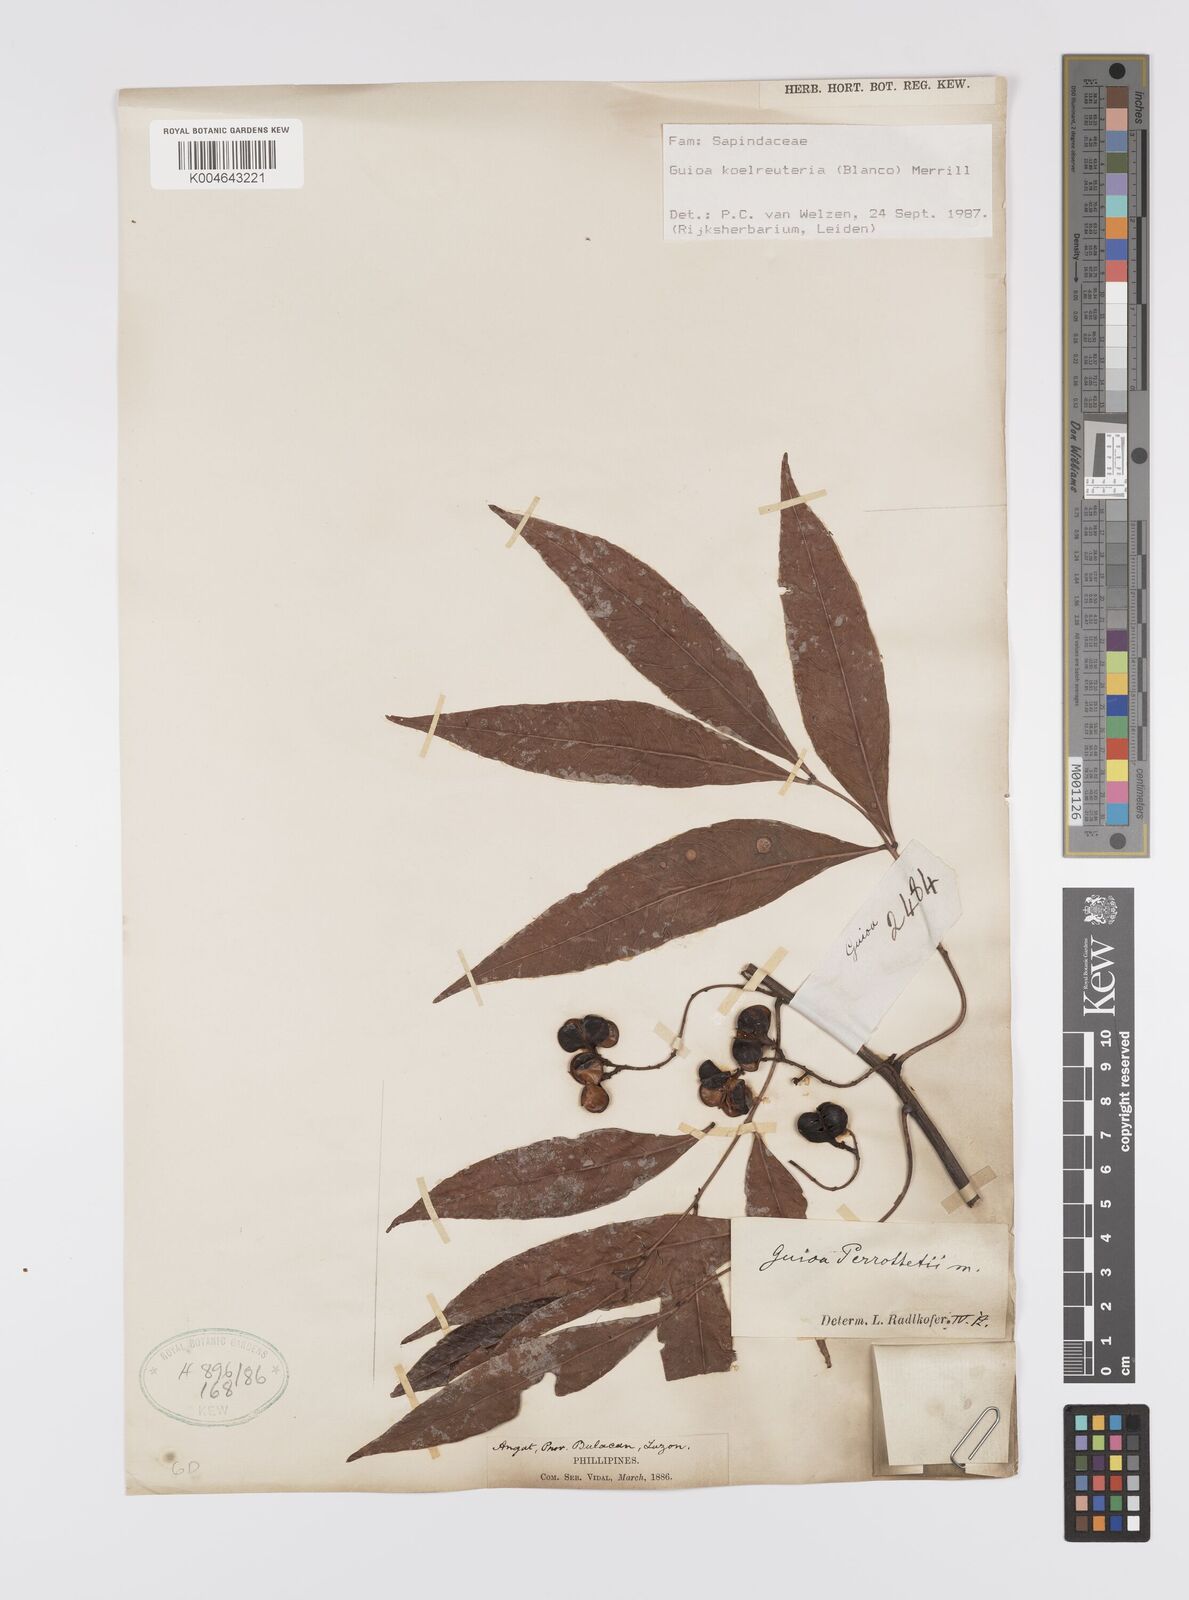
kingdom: Plantae
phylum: Tracheophyta
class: Magnoliopsida
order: Sapindales
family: Sapindaceae
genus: Guioa
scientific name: Guioa koelreuteria
